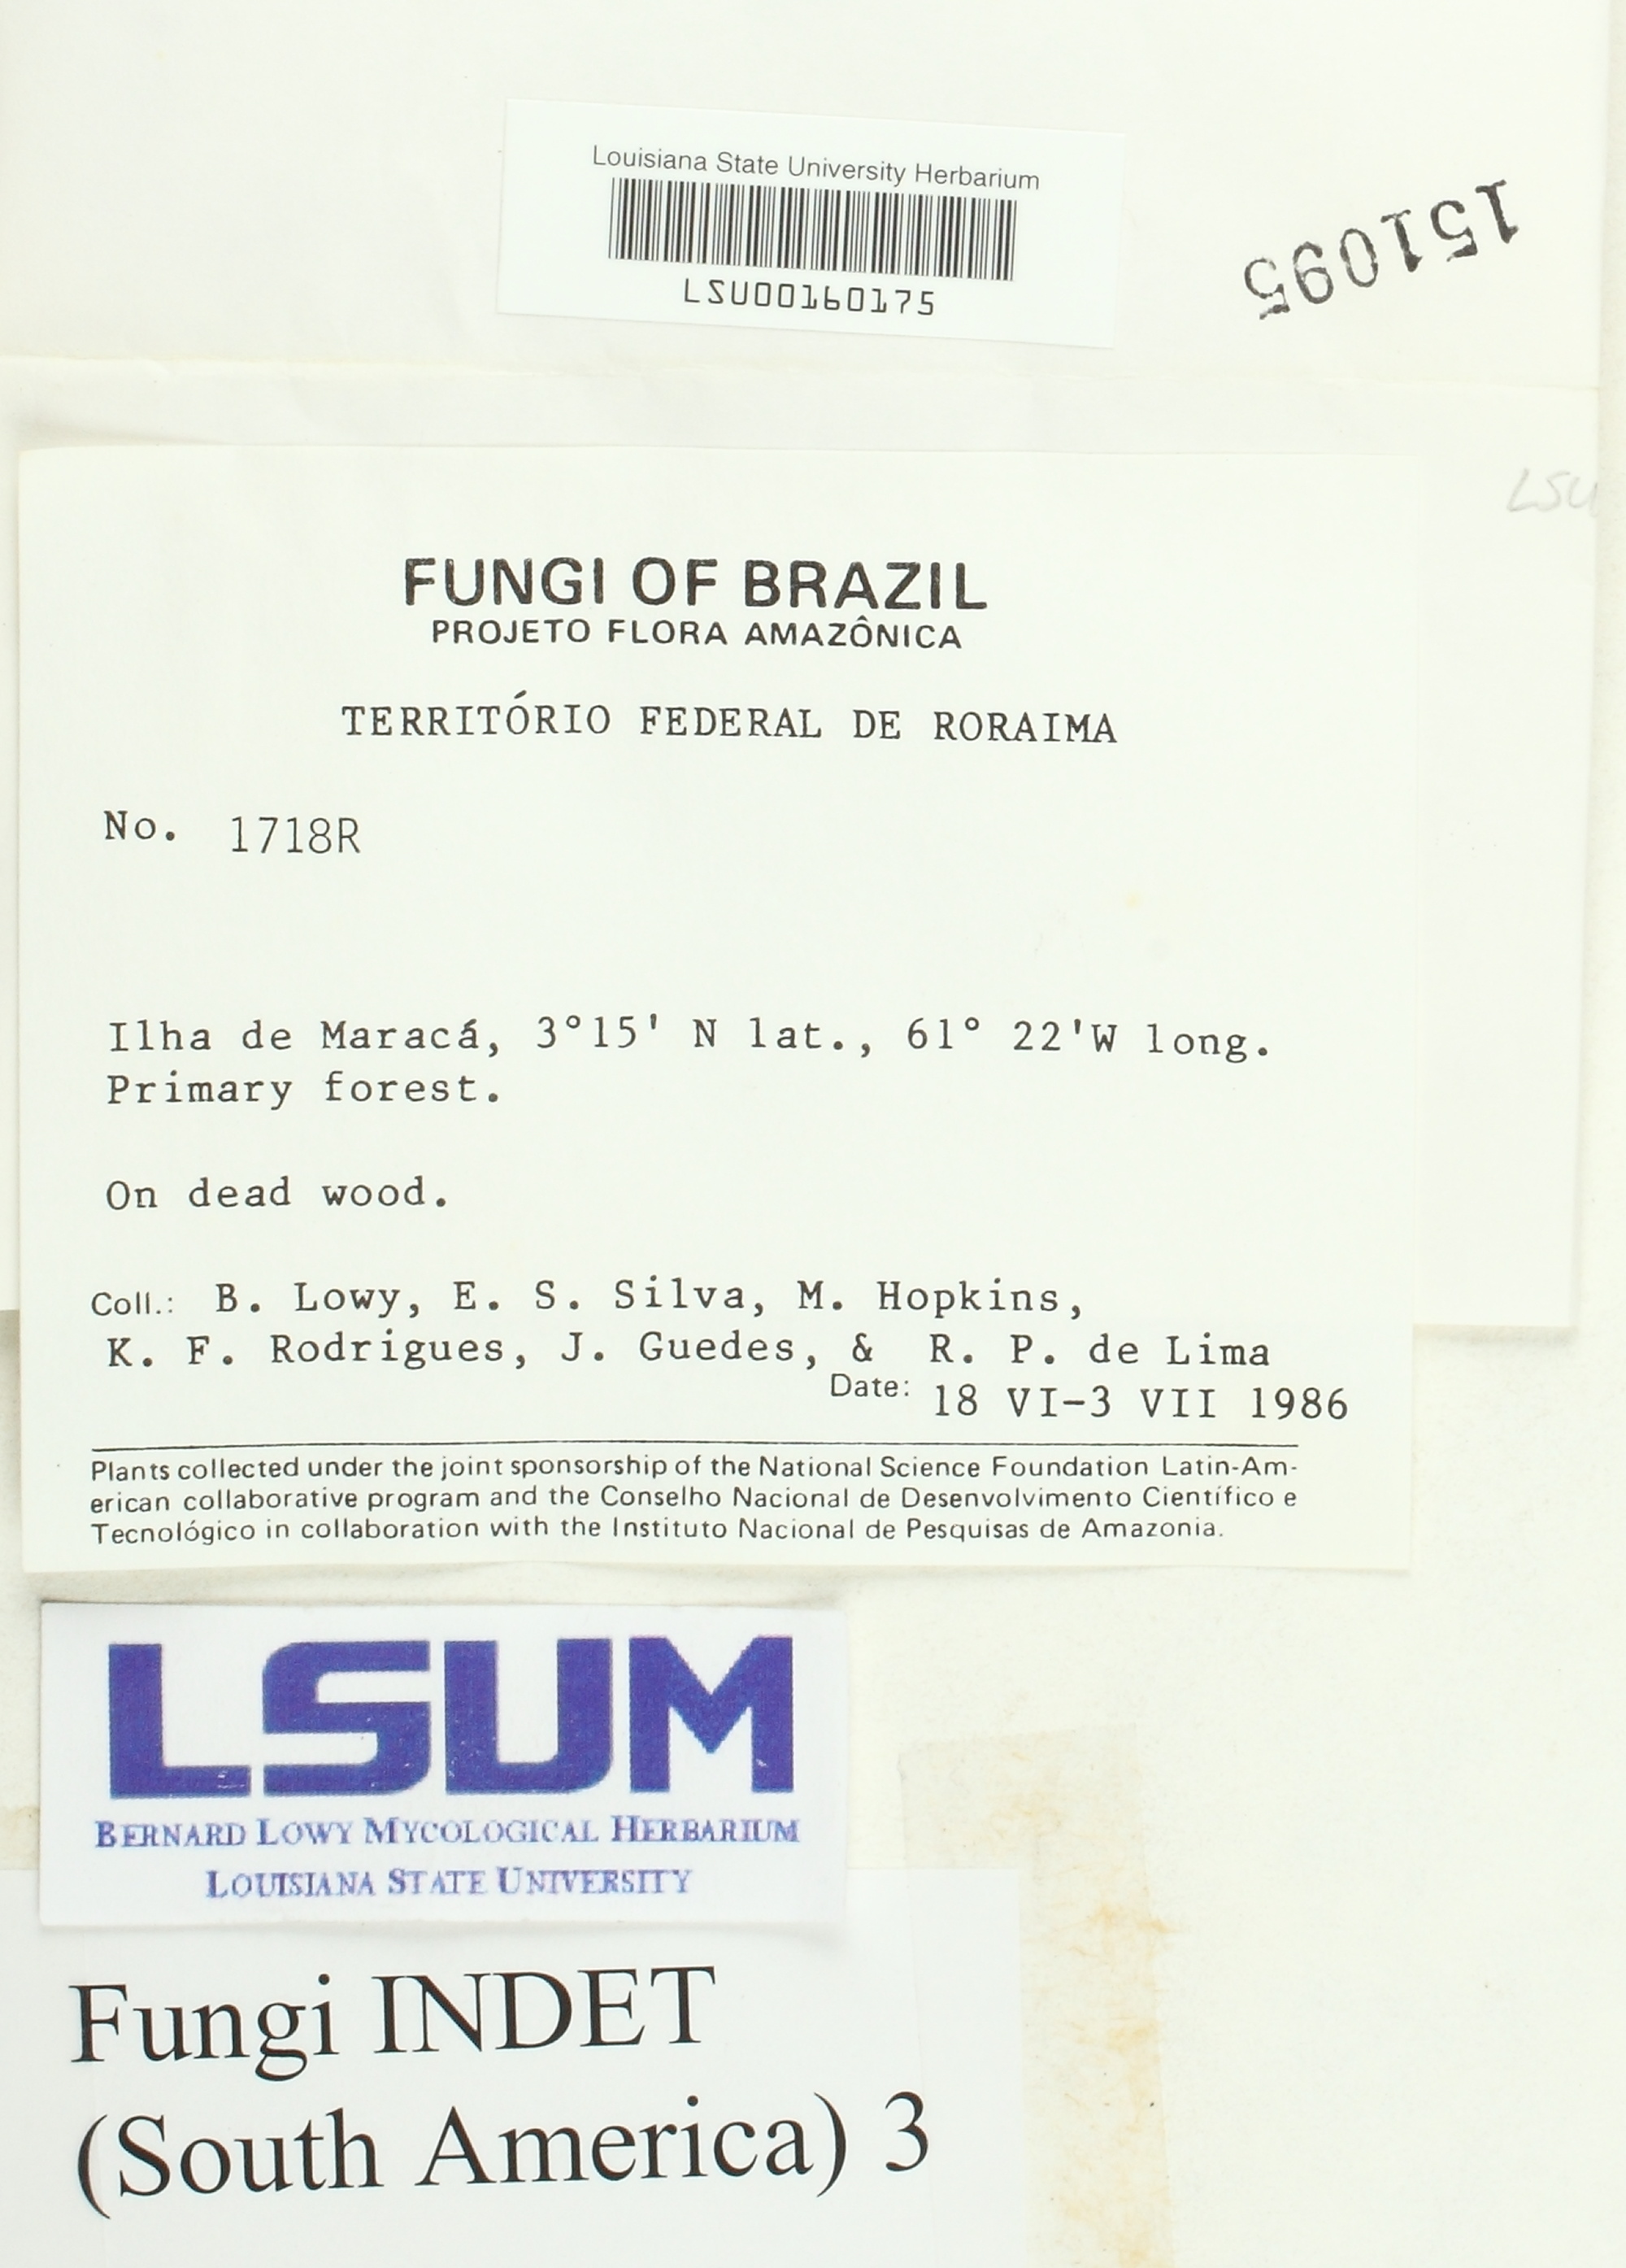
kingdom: Fungi
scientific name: Fungi
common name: Fungi
